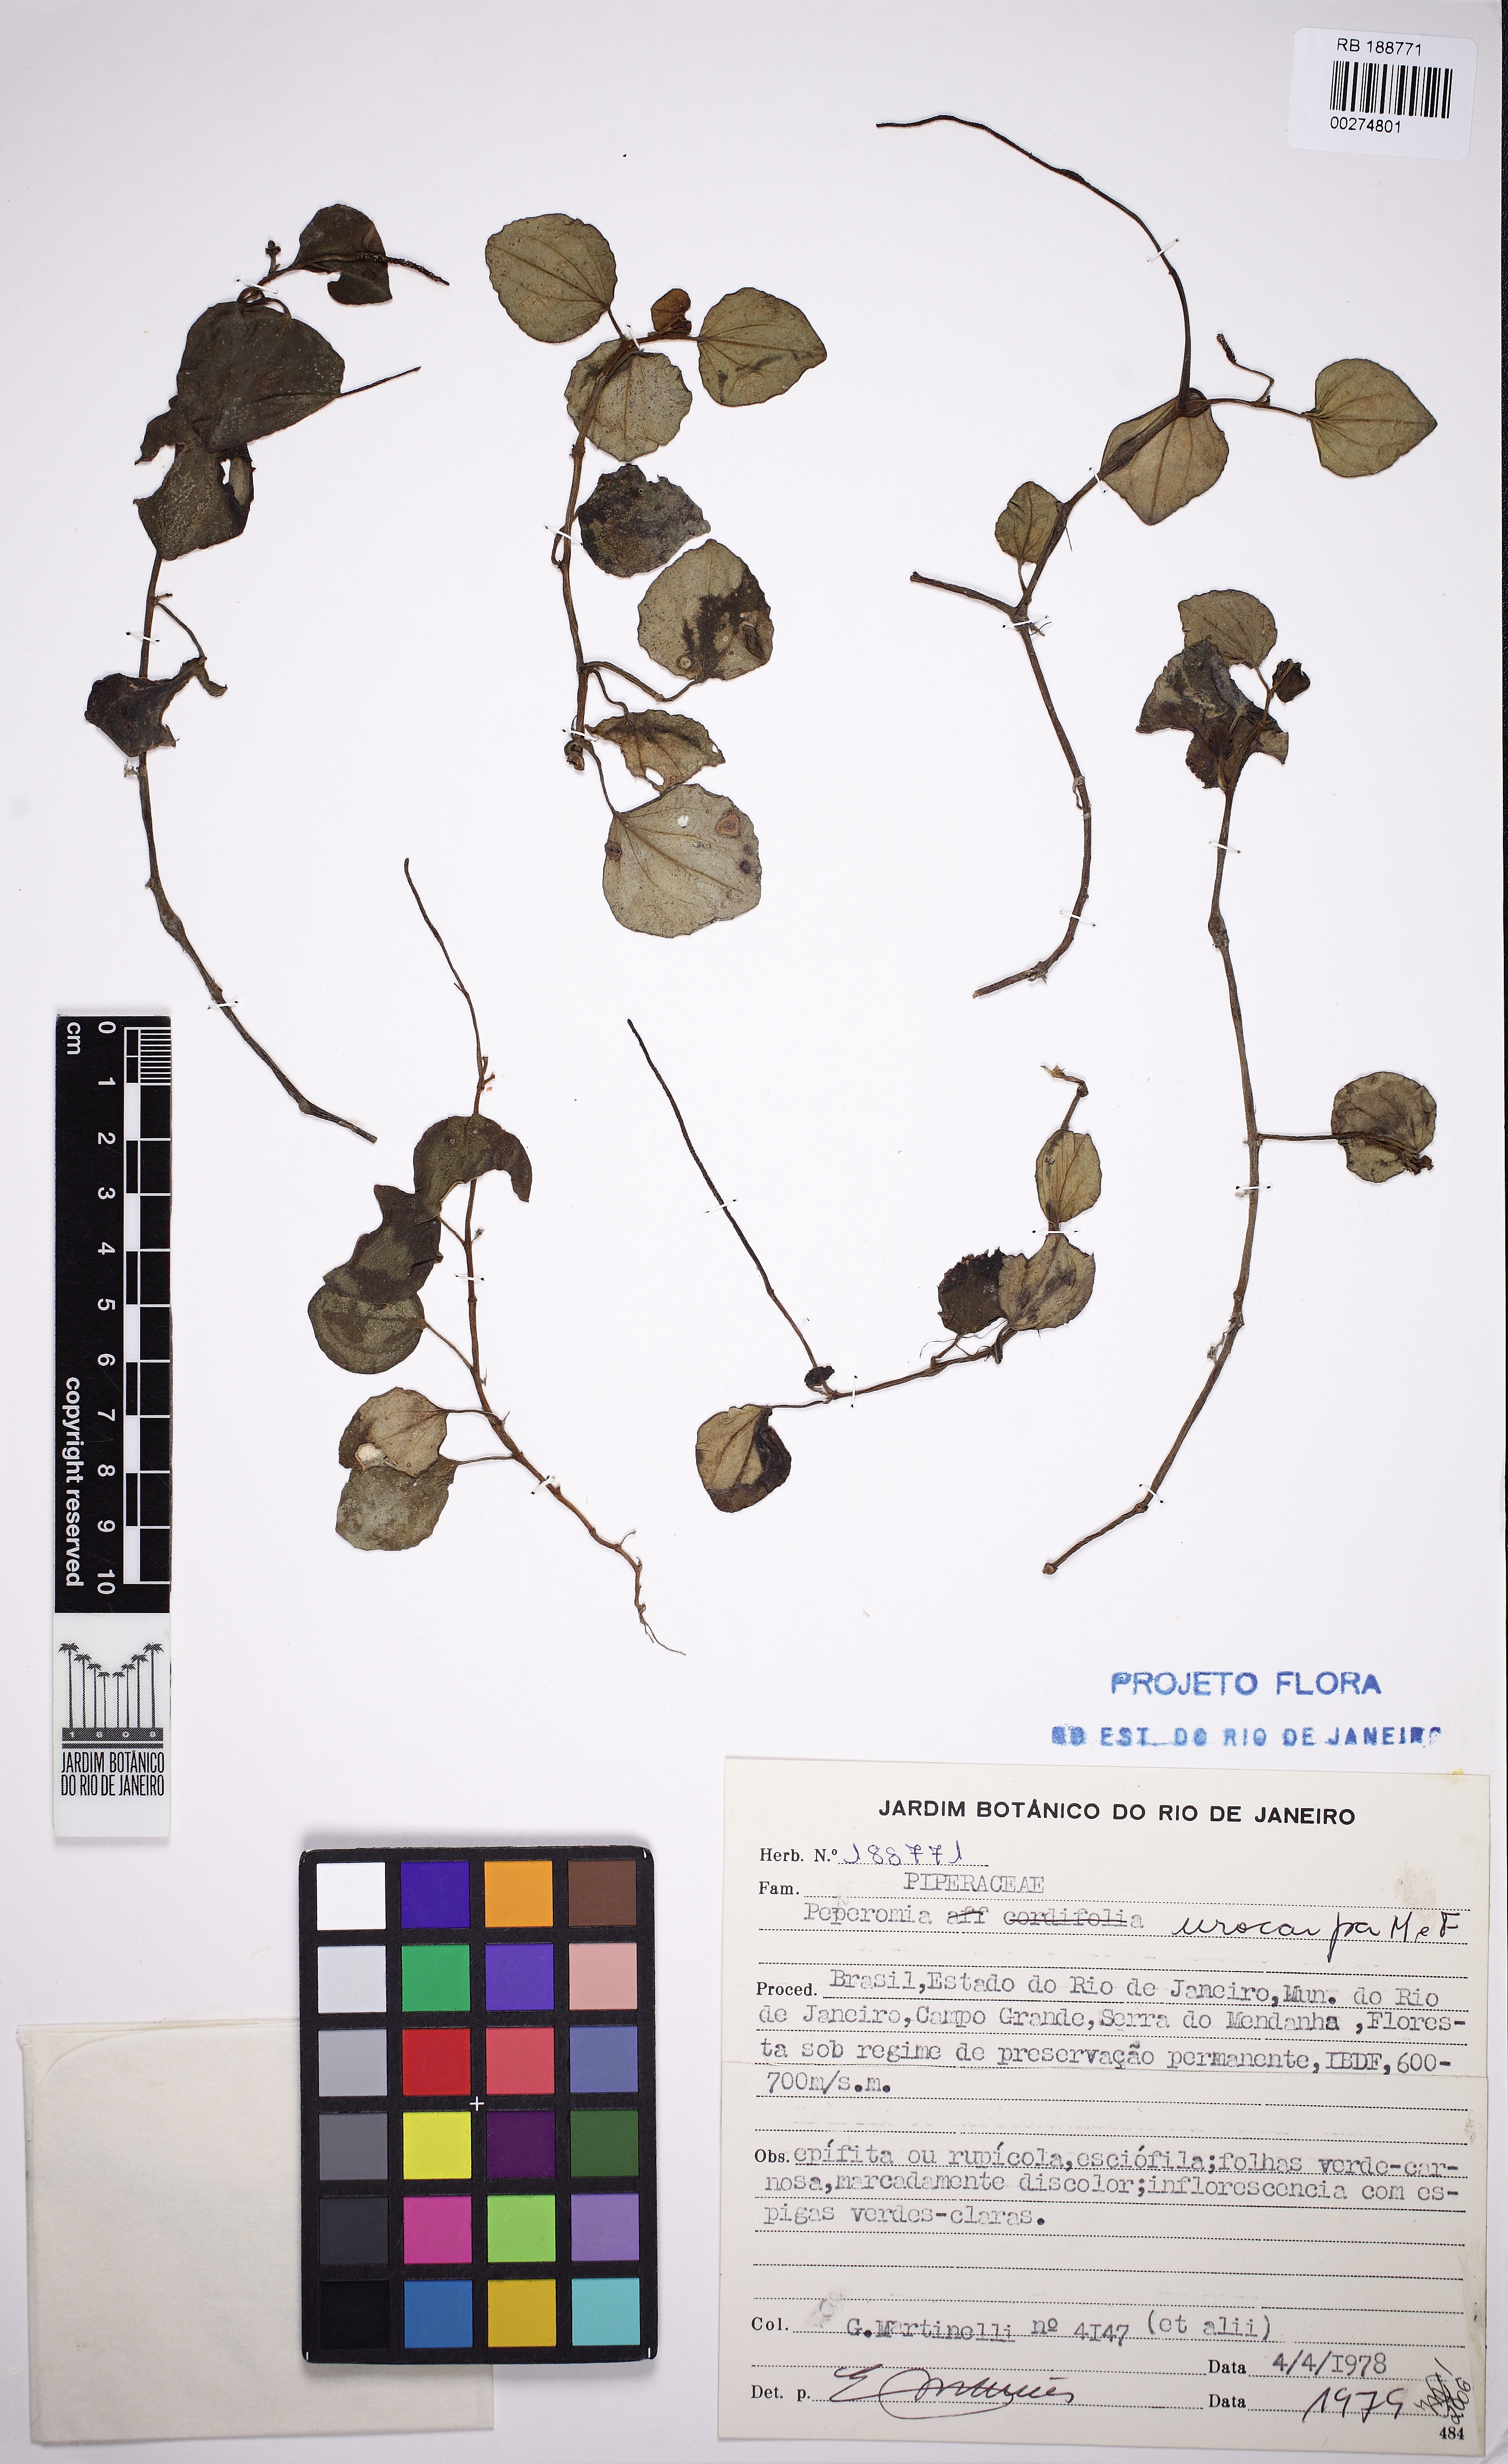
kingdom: Plantae
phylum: Tracheophyta
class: Magnoliopsida
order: Piperales
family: Piperaceae
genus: Peperomia
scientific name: Peperomia urocarpa
